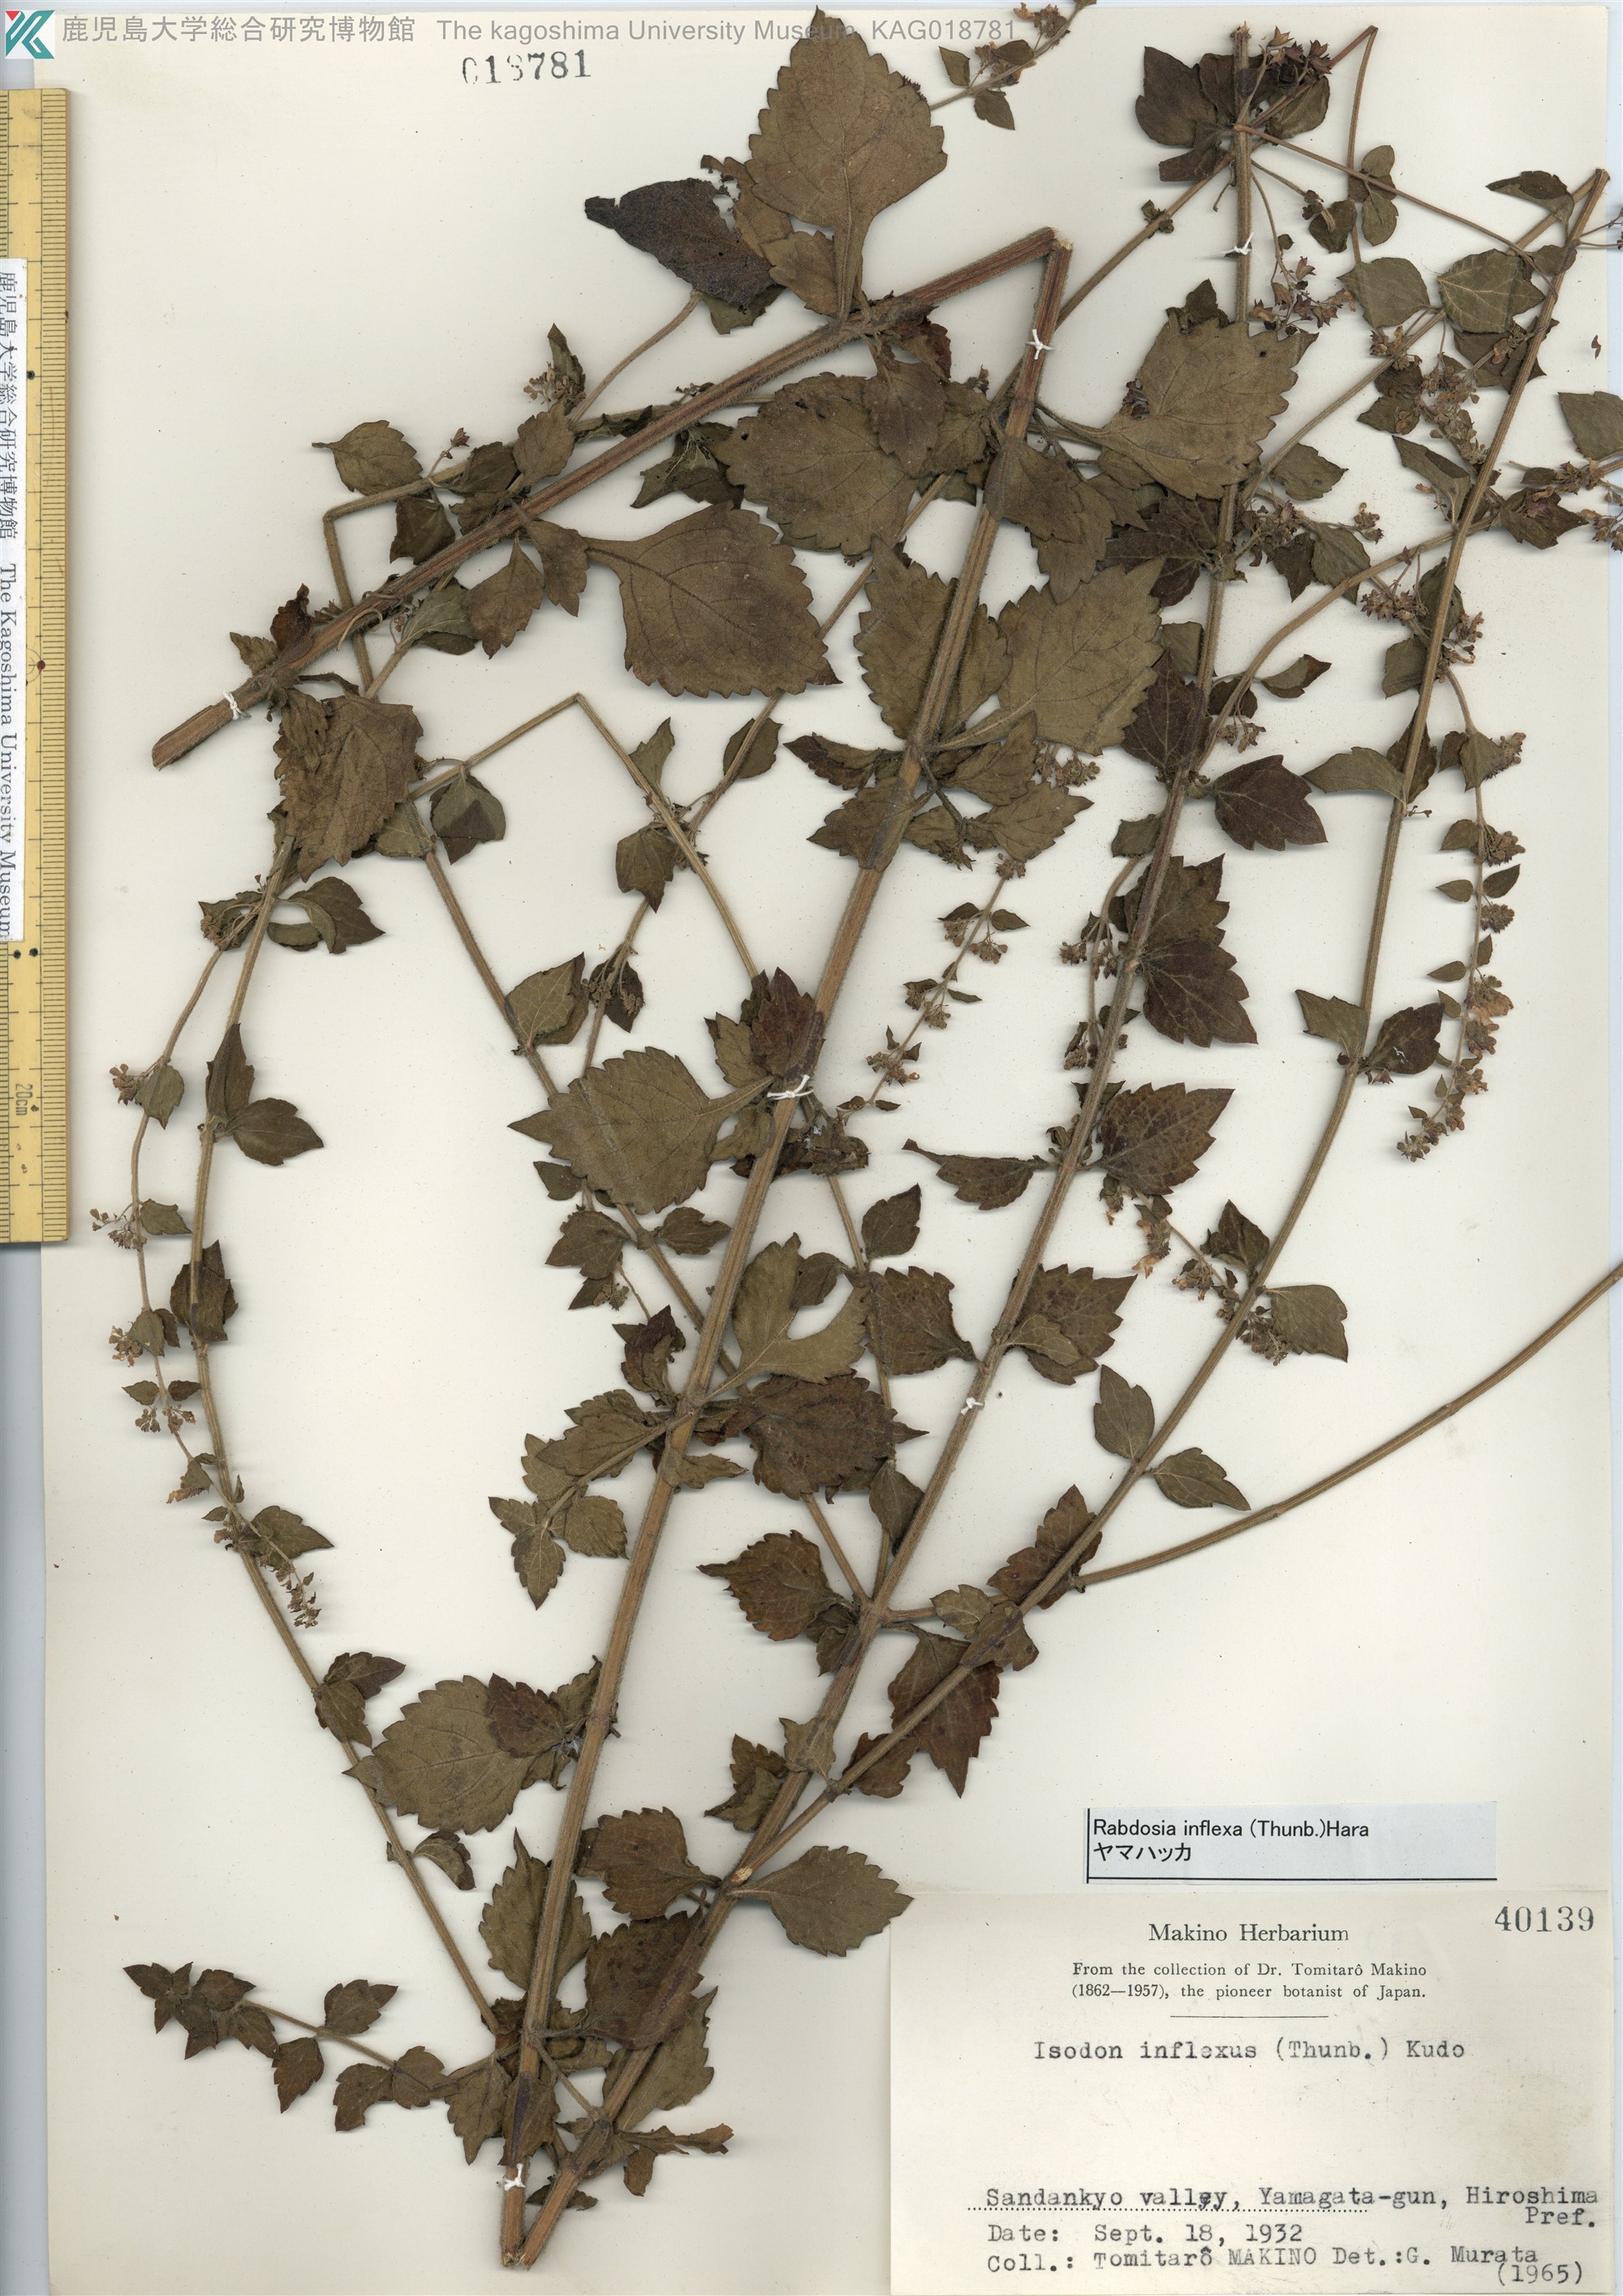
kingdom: Plantae
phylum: Tracheophyta
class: Magnoliopsida
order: Lamiales
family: Lamiaceae
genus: Isodon
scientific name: Isodon inflexus
